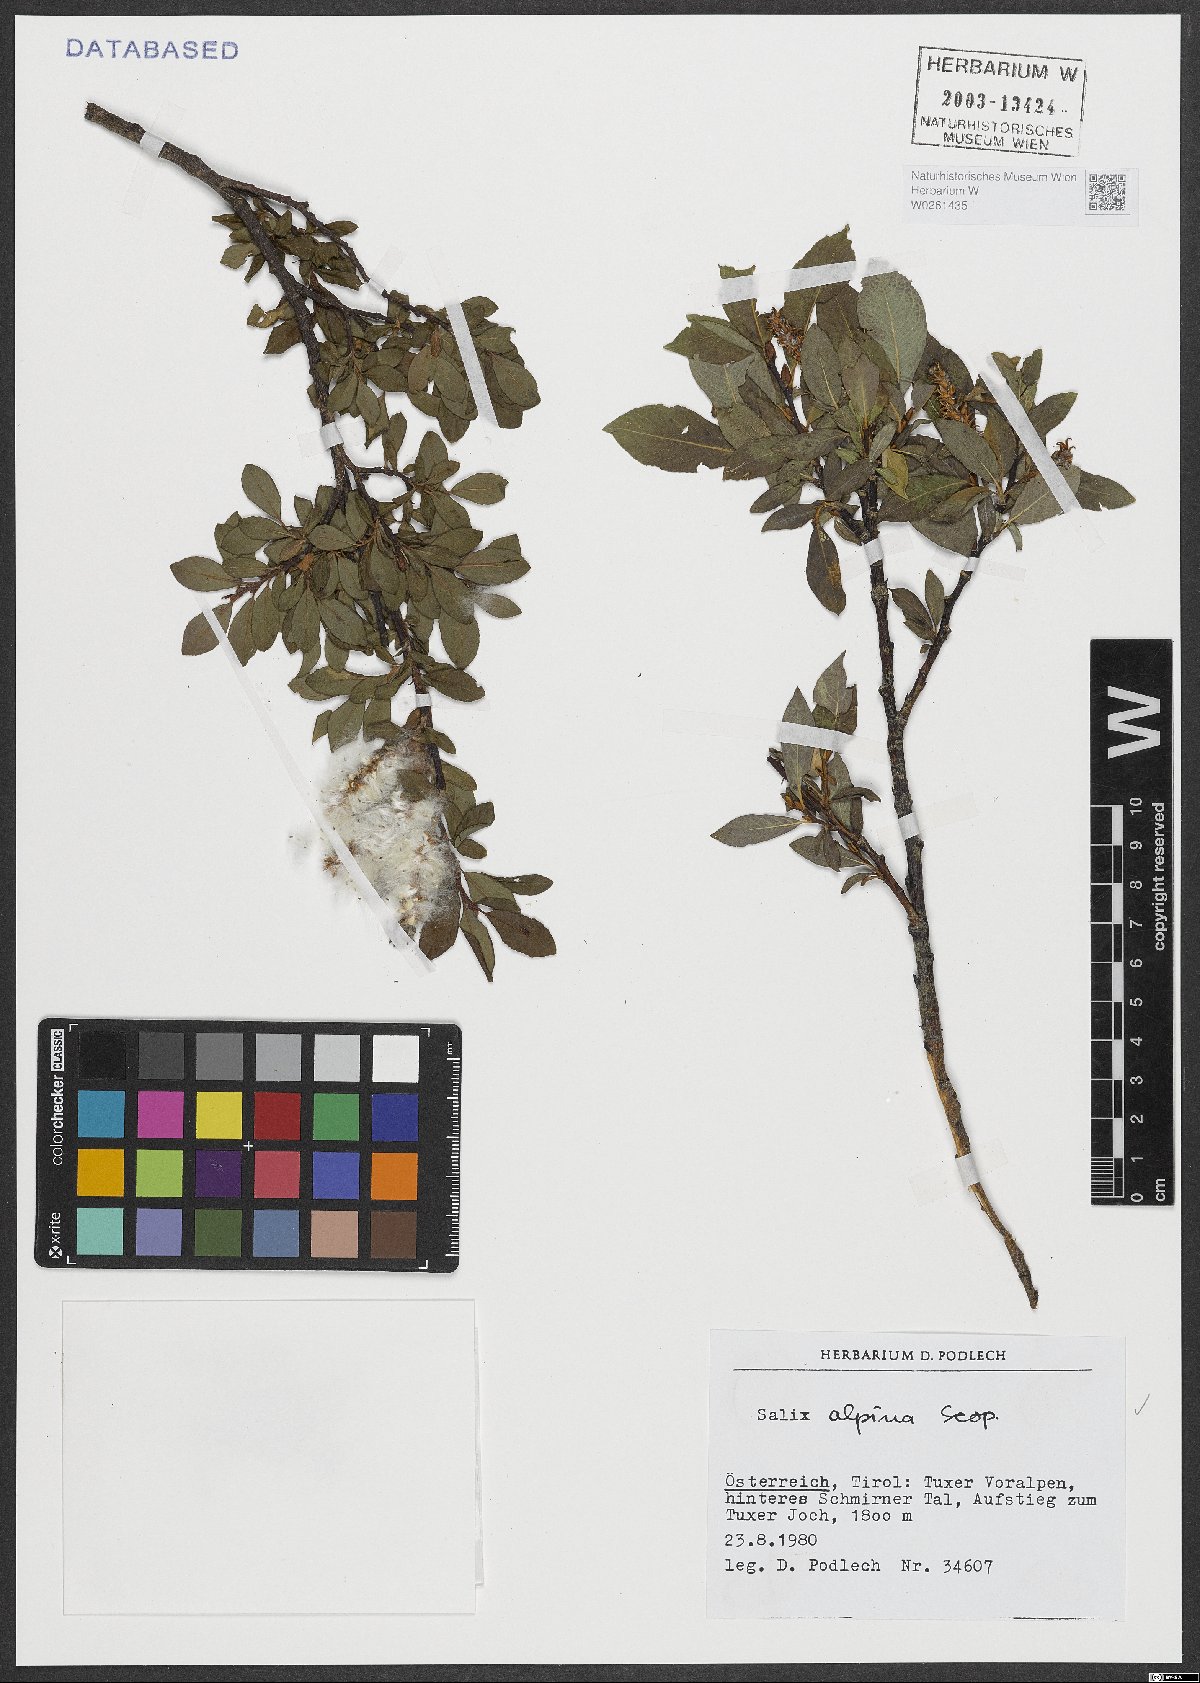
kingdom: Plantae
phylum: Tracheophyta
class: Magnoliopsida
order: Malpighiales
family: Salicaceae
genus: Salix
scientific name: Salix alpina
